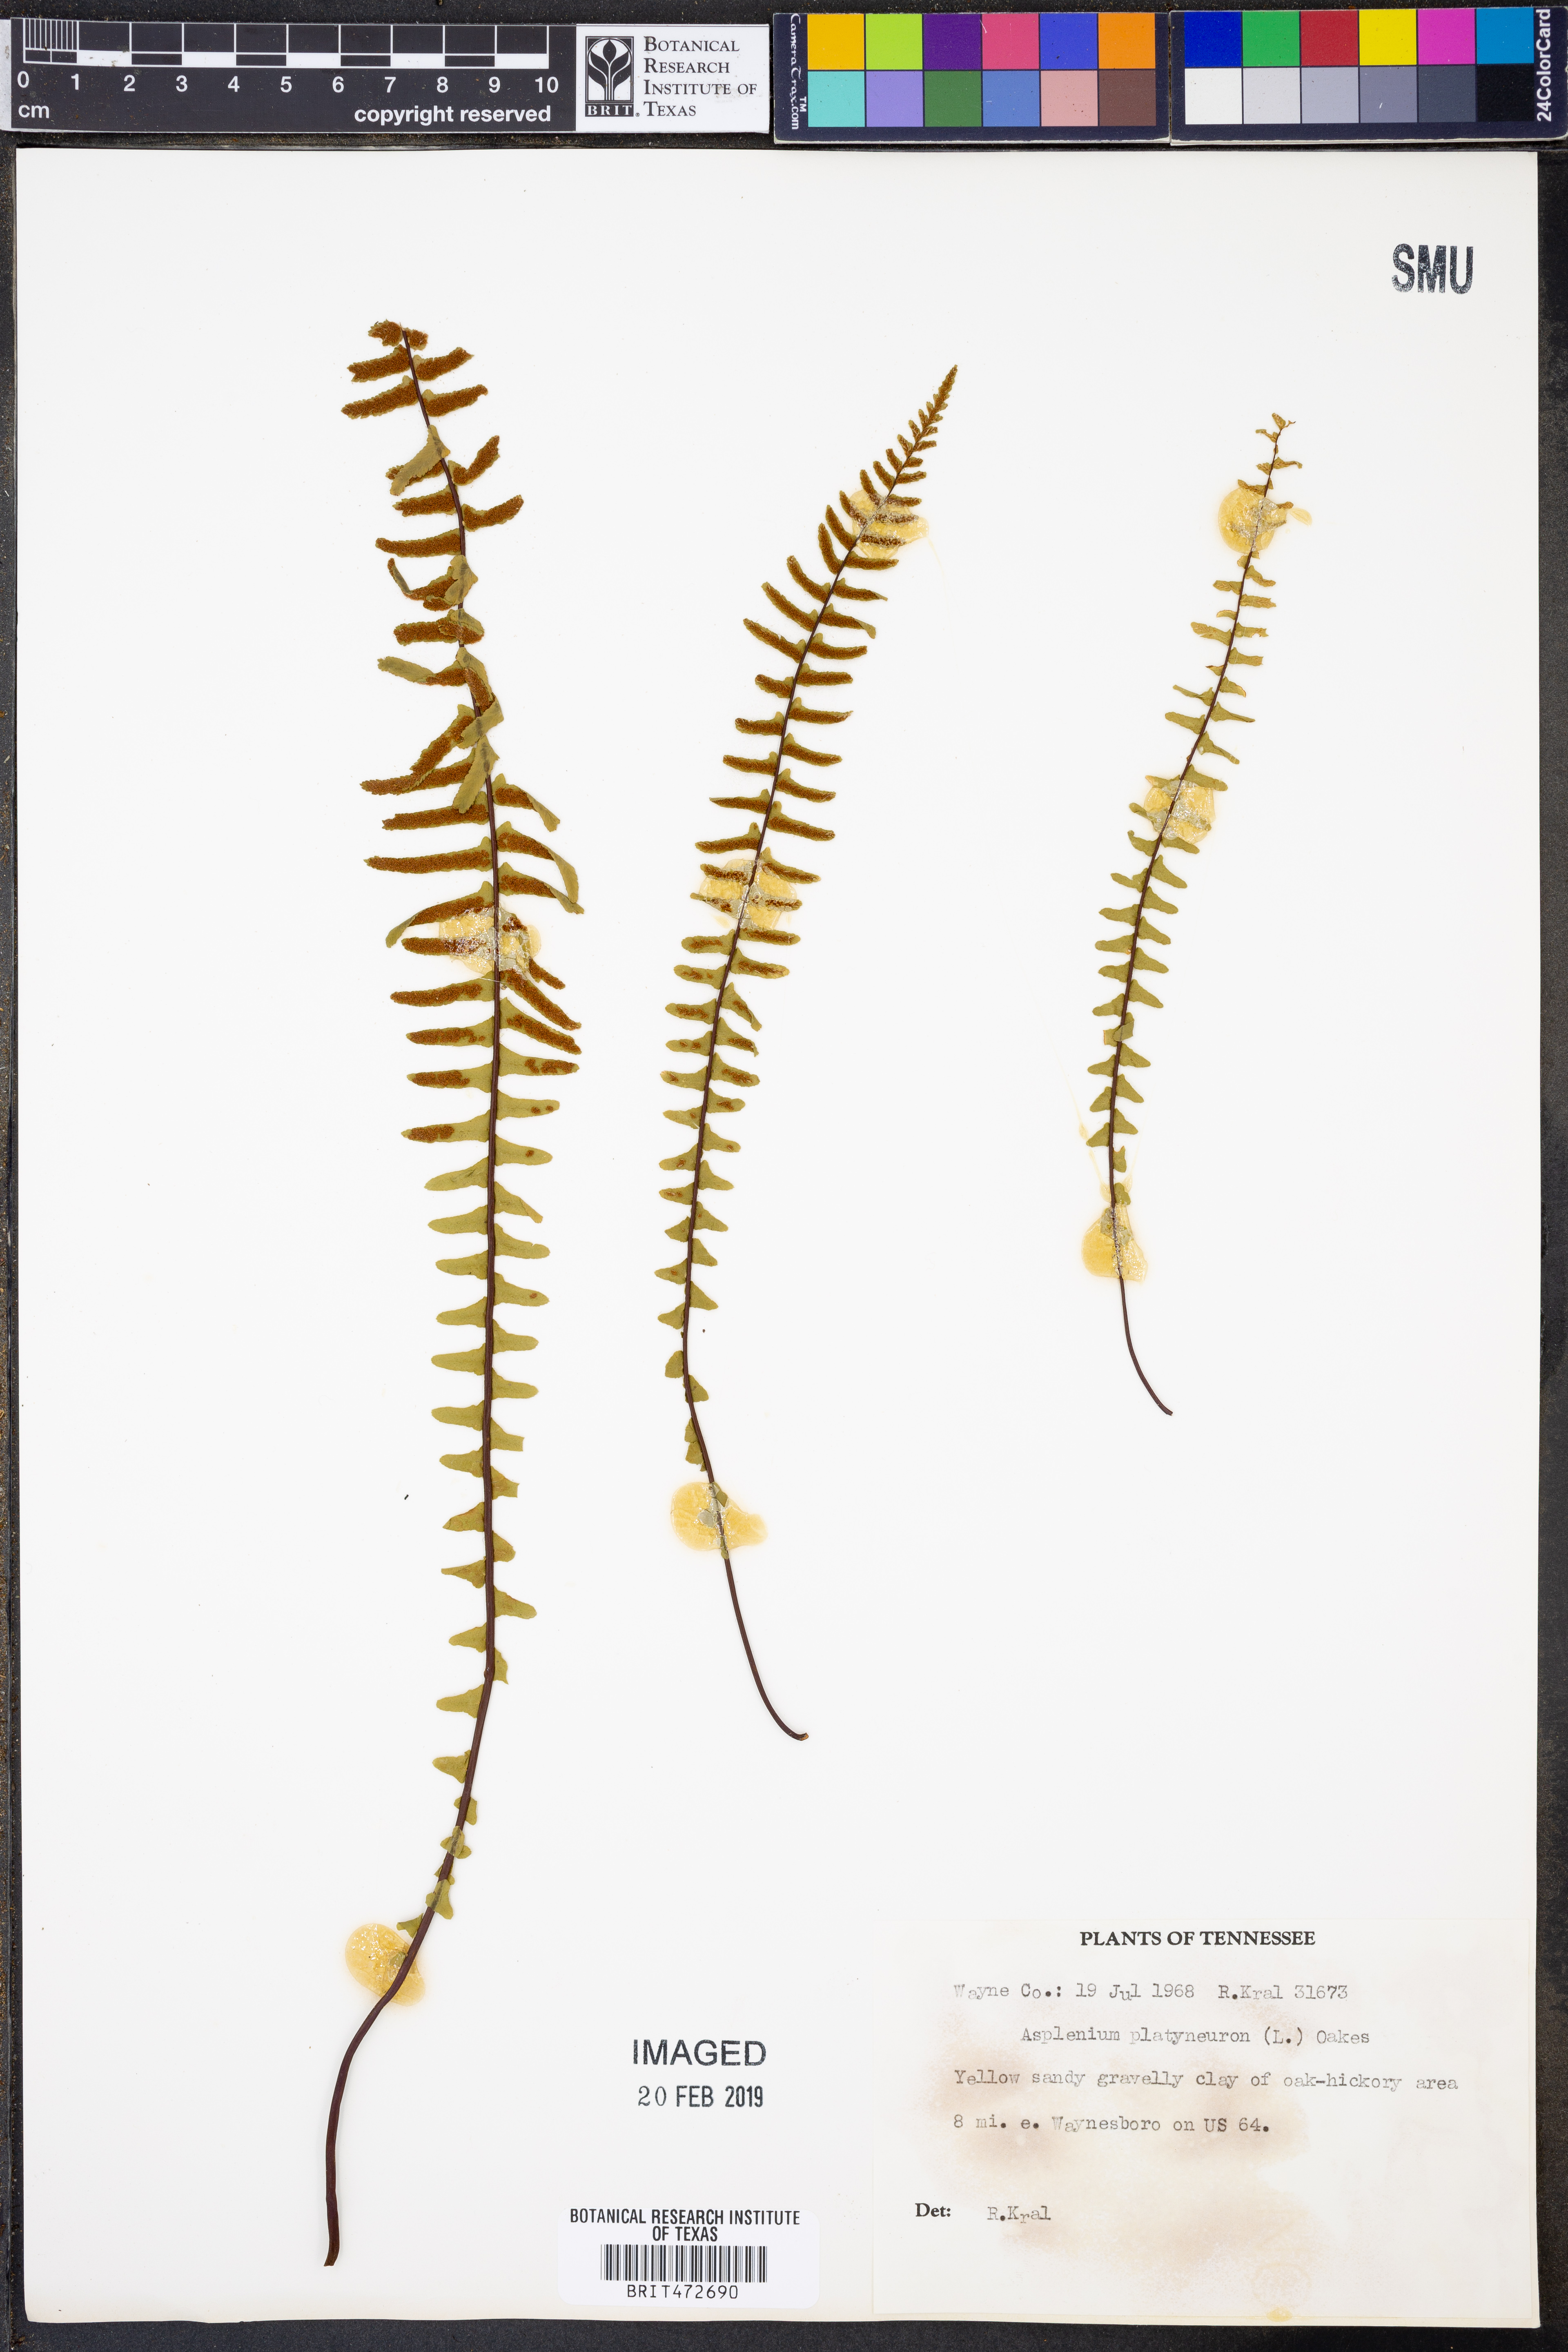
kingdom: Plantae
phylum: Tracheophyta
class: Polypodiopsida
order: Polypodiales
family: Aspleniaceae
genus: Asplenium
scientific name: Asplenium platyneuron
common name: Ebony spleenwort
